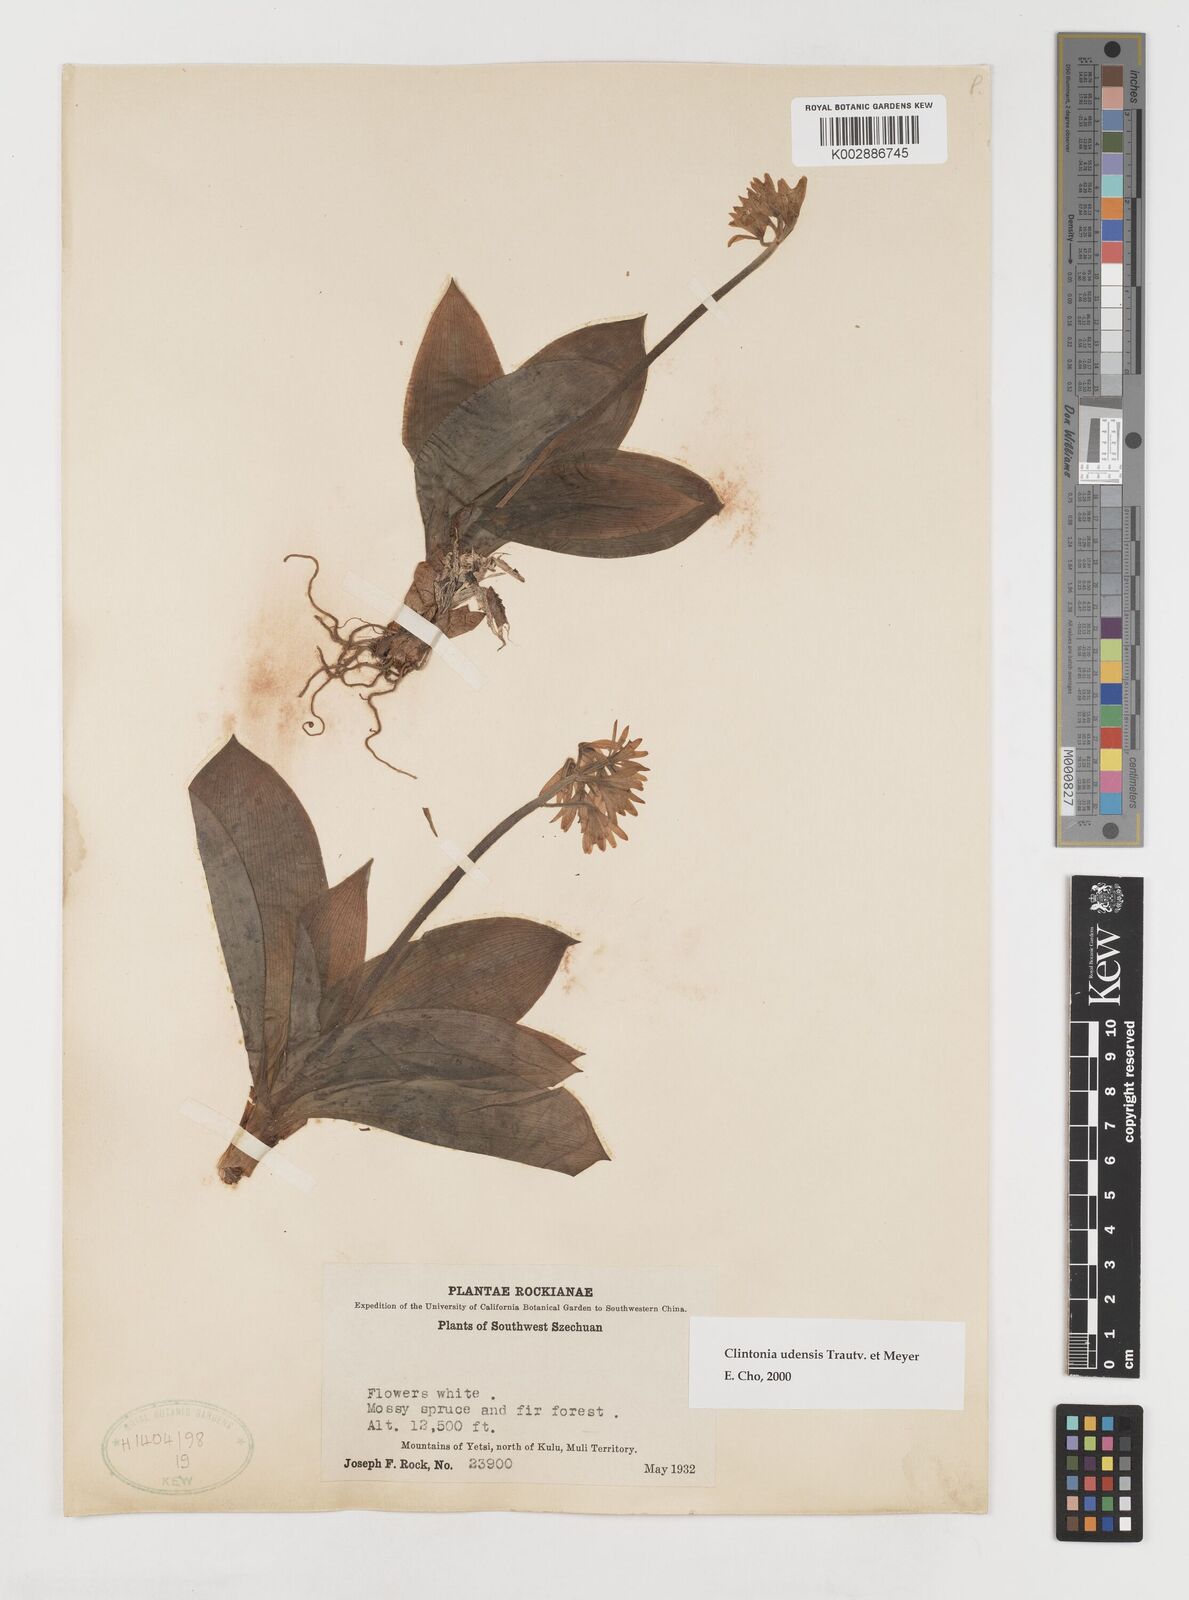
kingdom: Plantae
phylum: Tracheophyta
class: Liliopsida
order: Liliales
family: Liliaceae
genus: Clintonia
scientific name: Clintonia udensis
